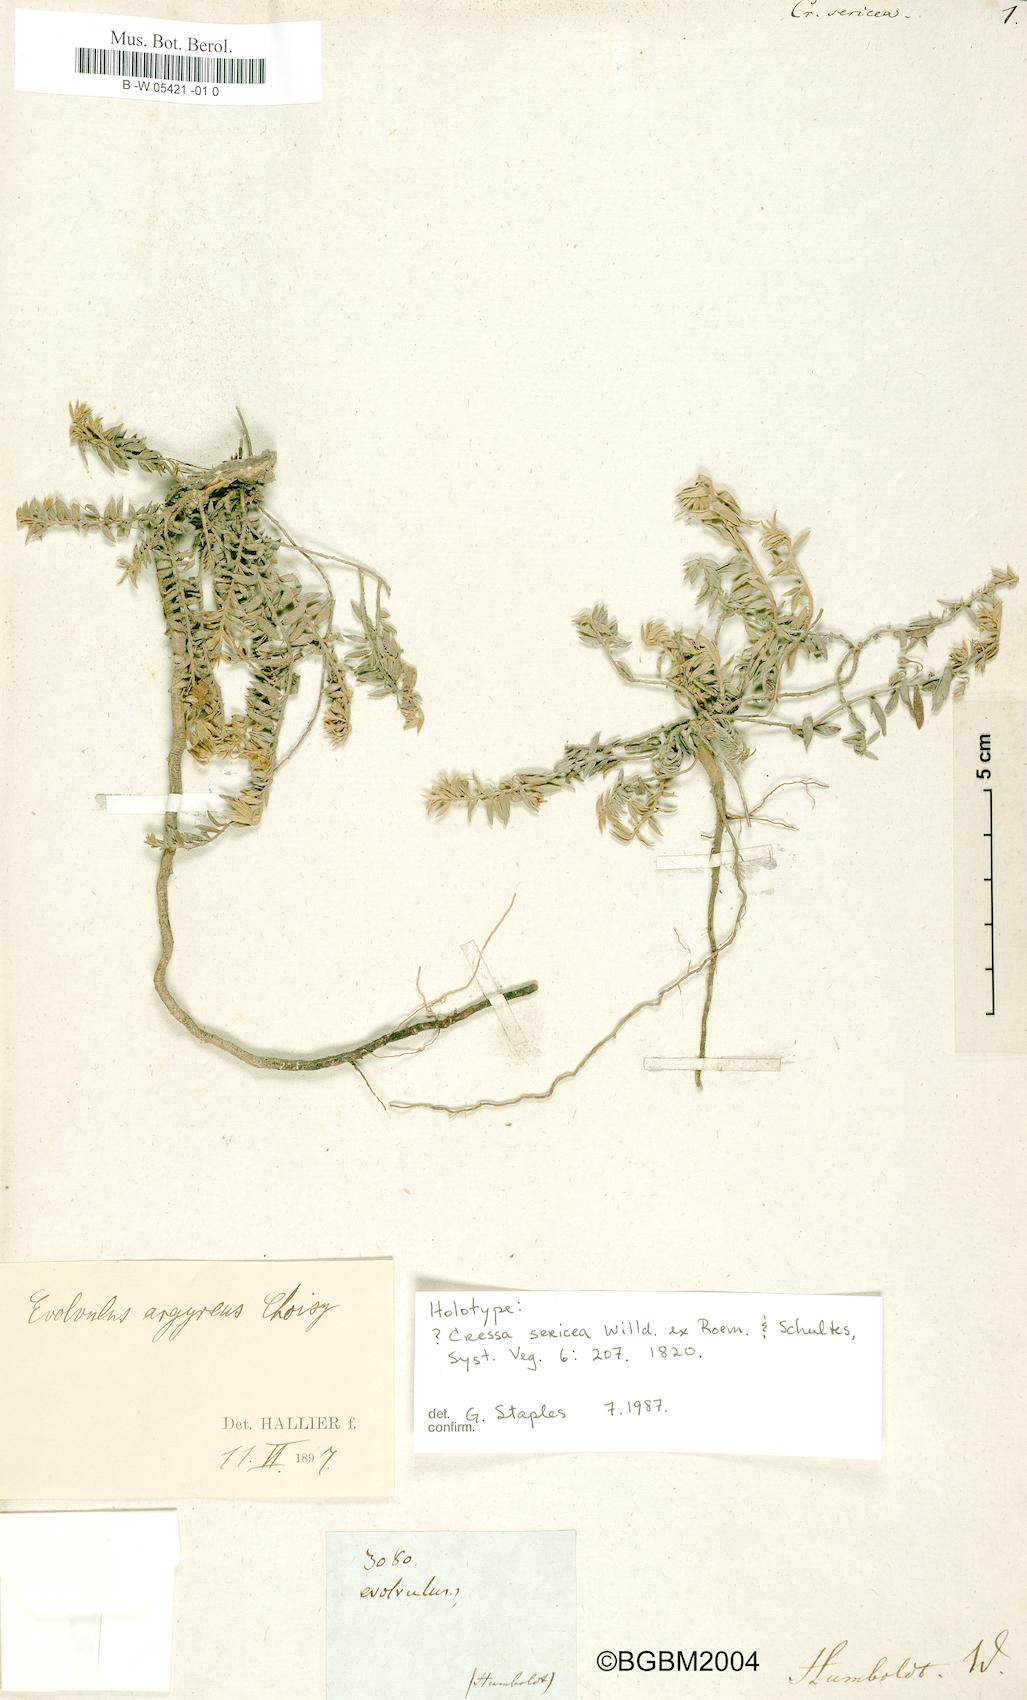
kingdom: Plantae
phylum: Tracheophyta
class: Magnoliopsida
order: Solanales
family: Convolvulaceae
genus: Evolvulus
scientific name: Evolvulus argyreus
